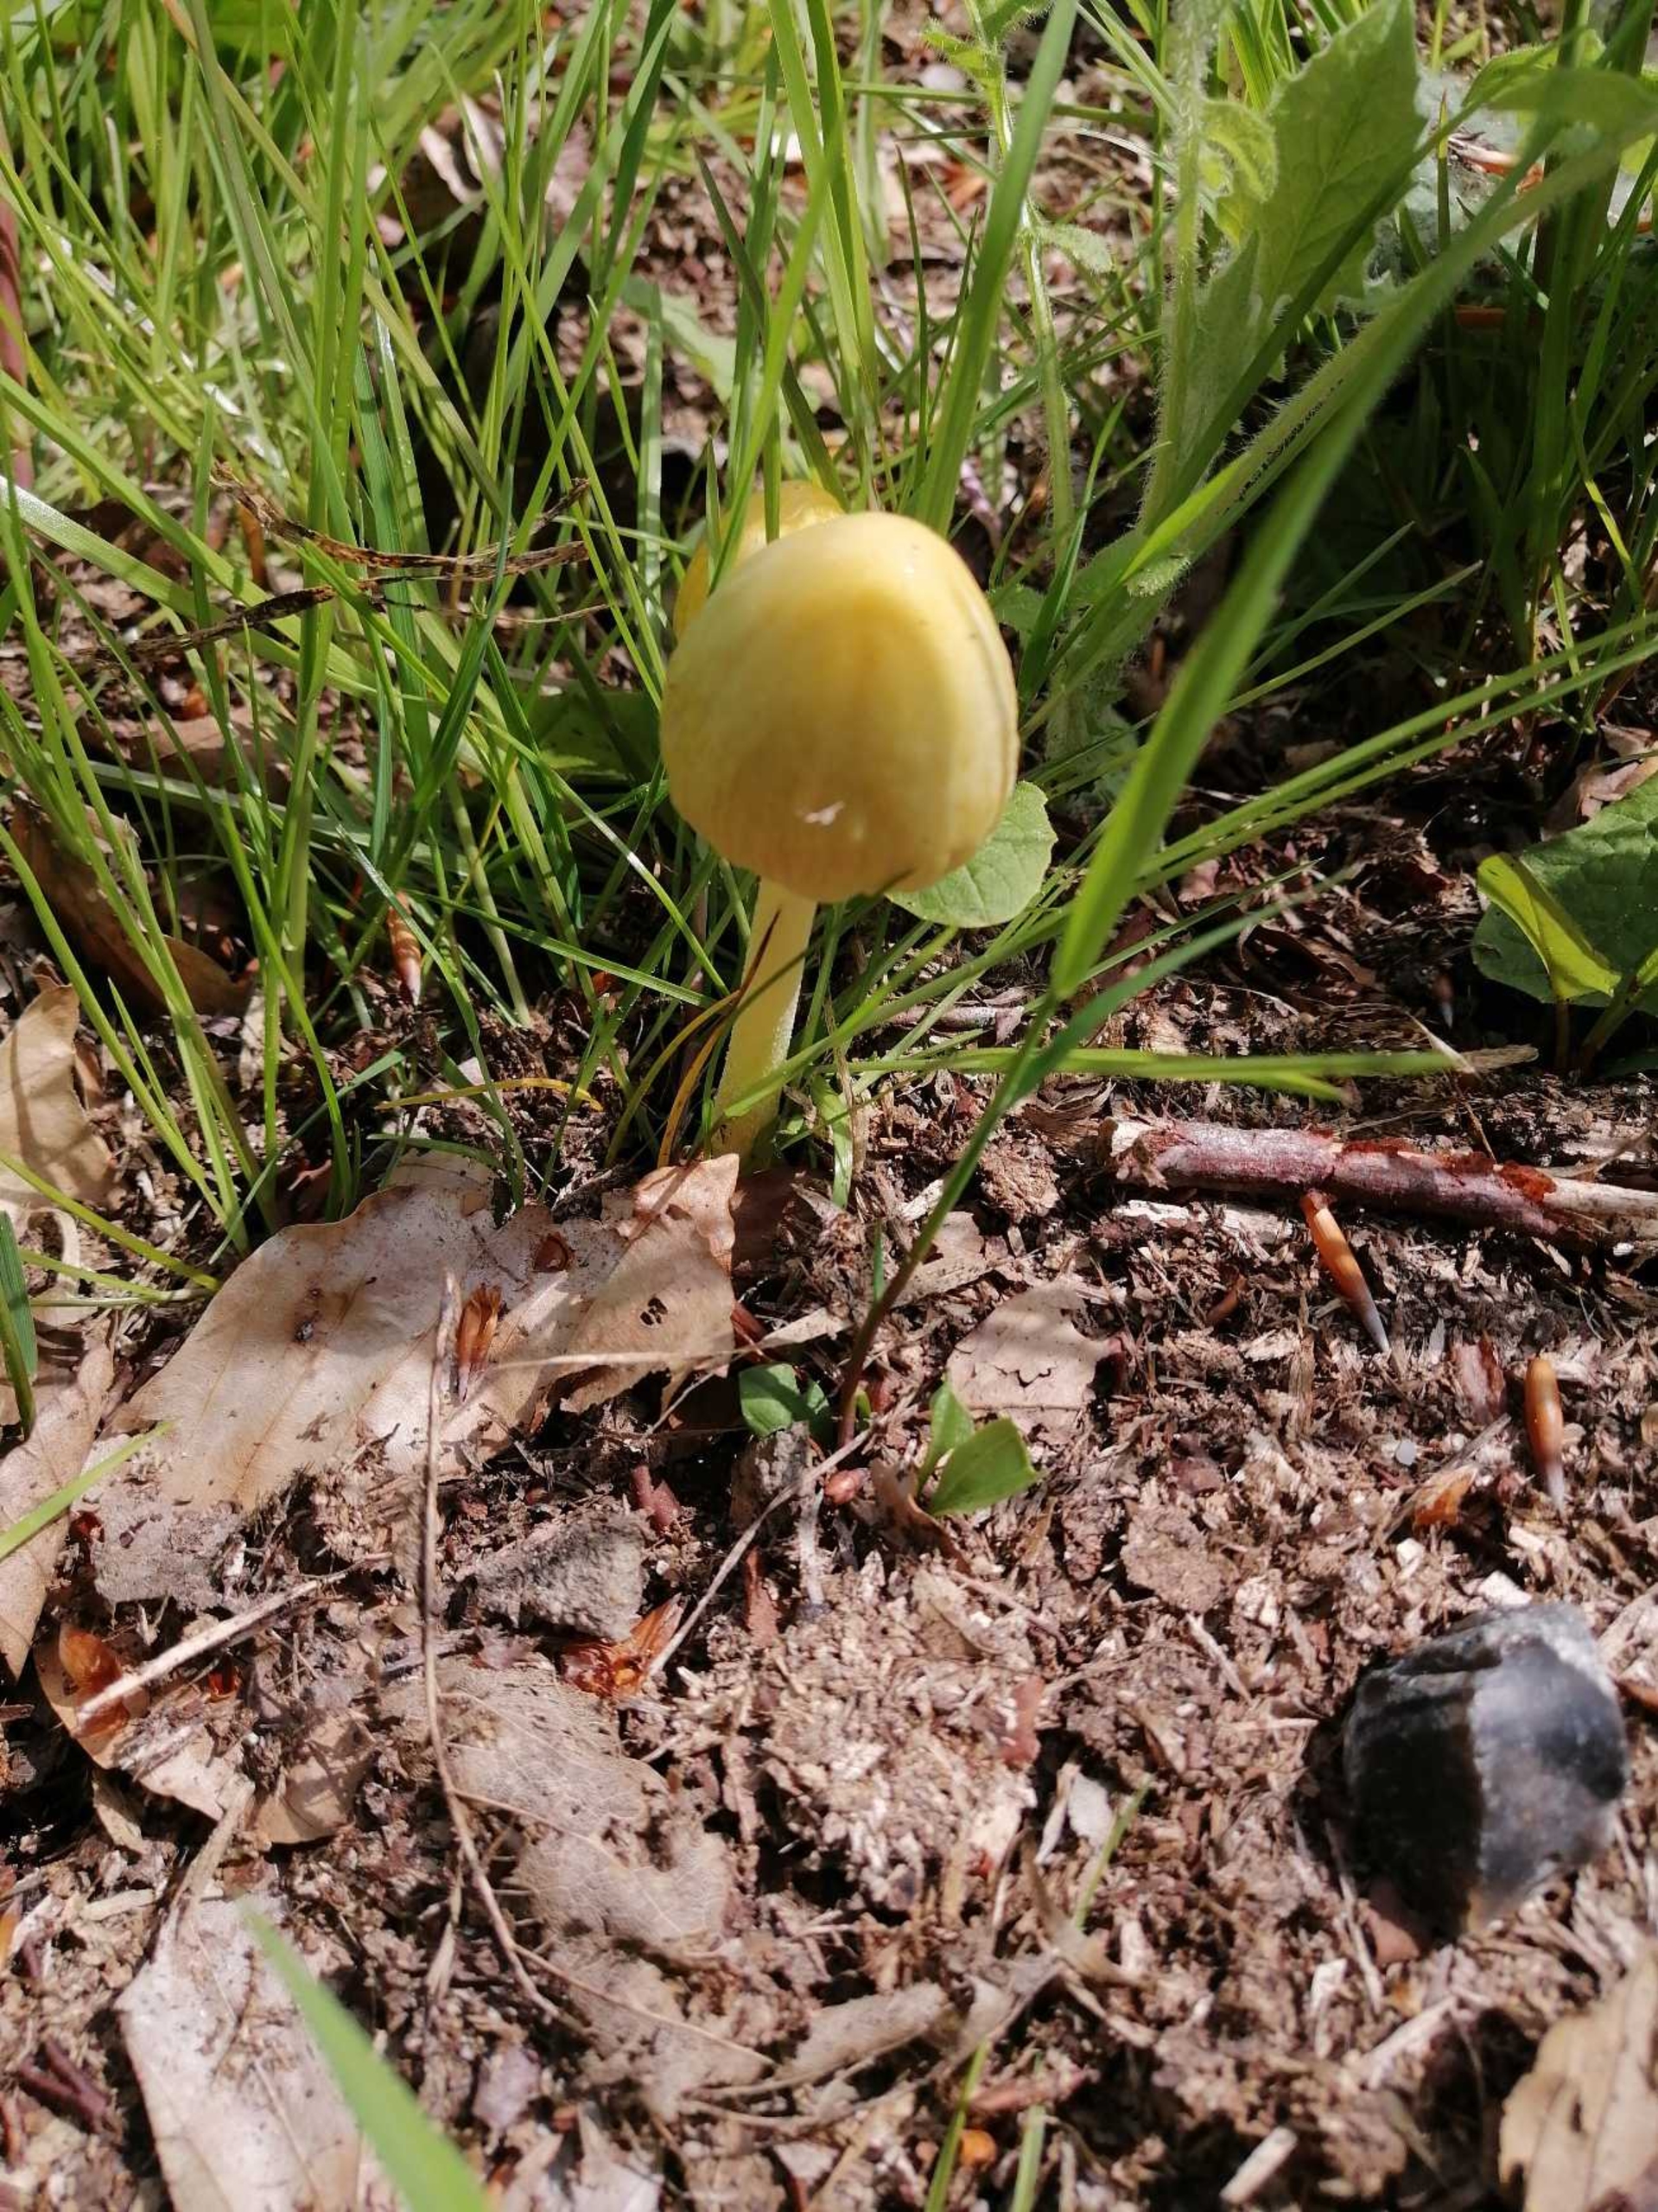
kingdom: Fungi
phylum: Basidiomycota
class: Agaricomycetes
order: Agaricales
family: Bolbitiaceae
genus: Bolbitius
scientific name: Bolbitius titubans
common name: Almindelig gulhat
